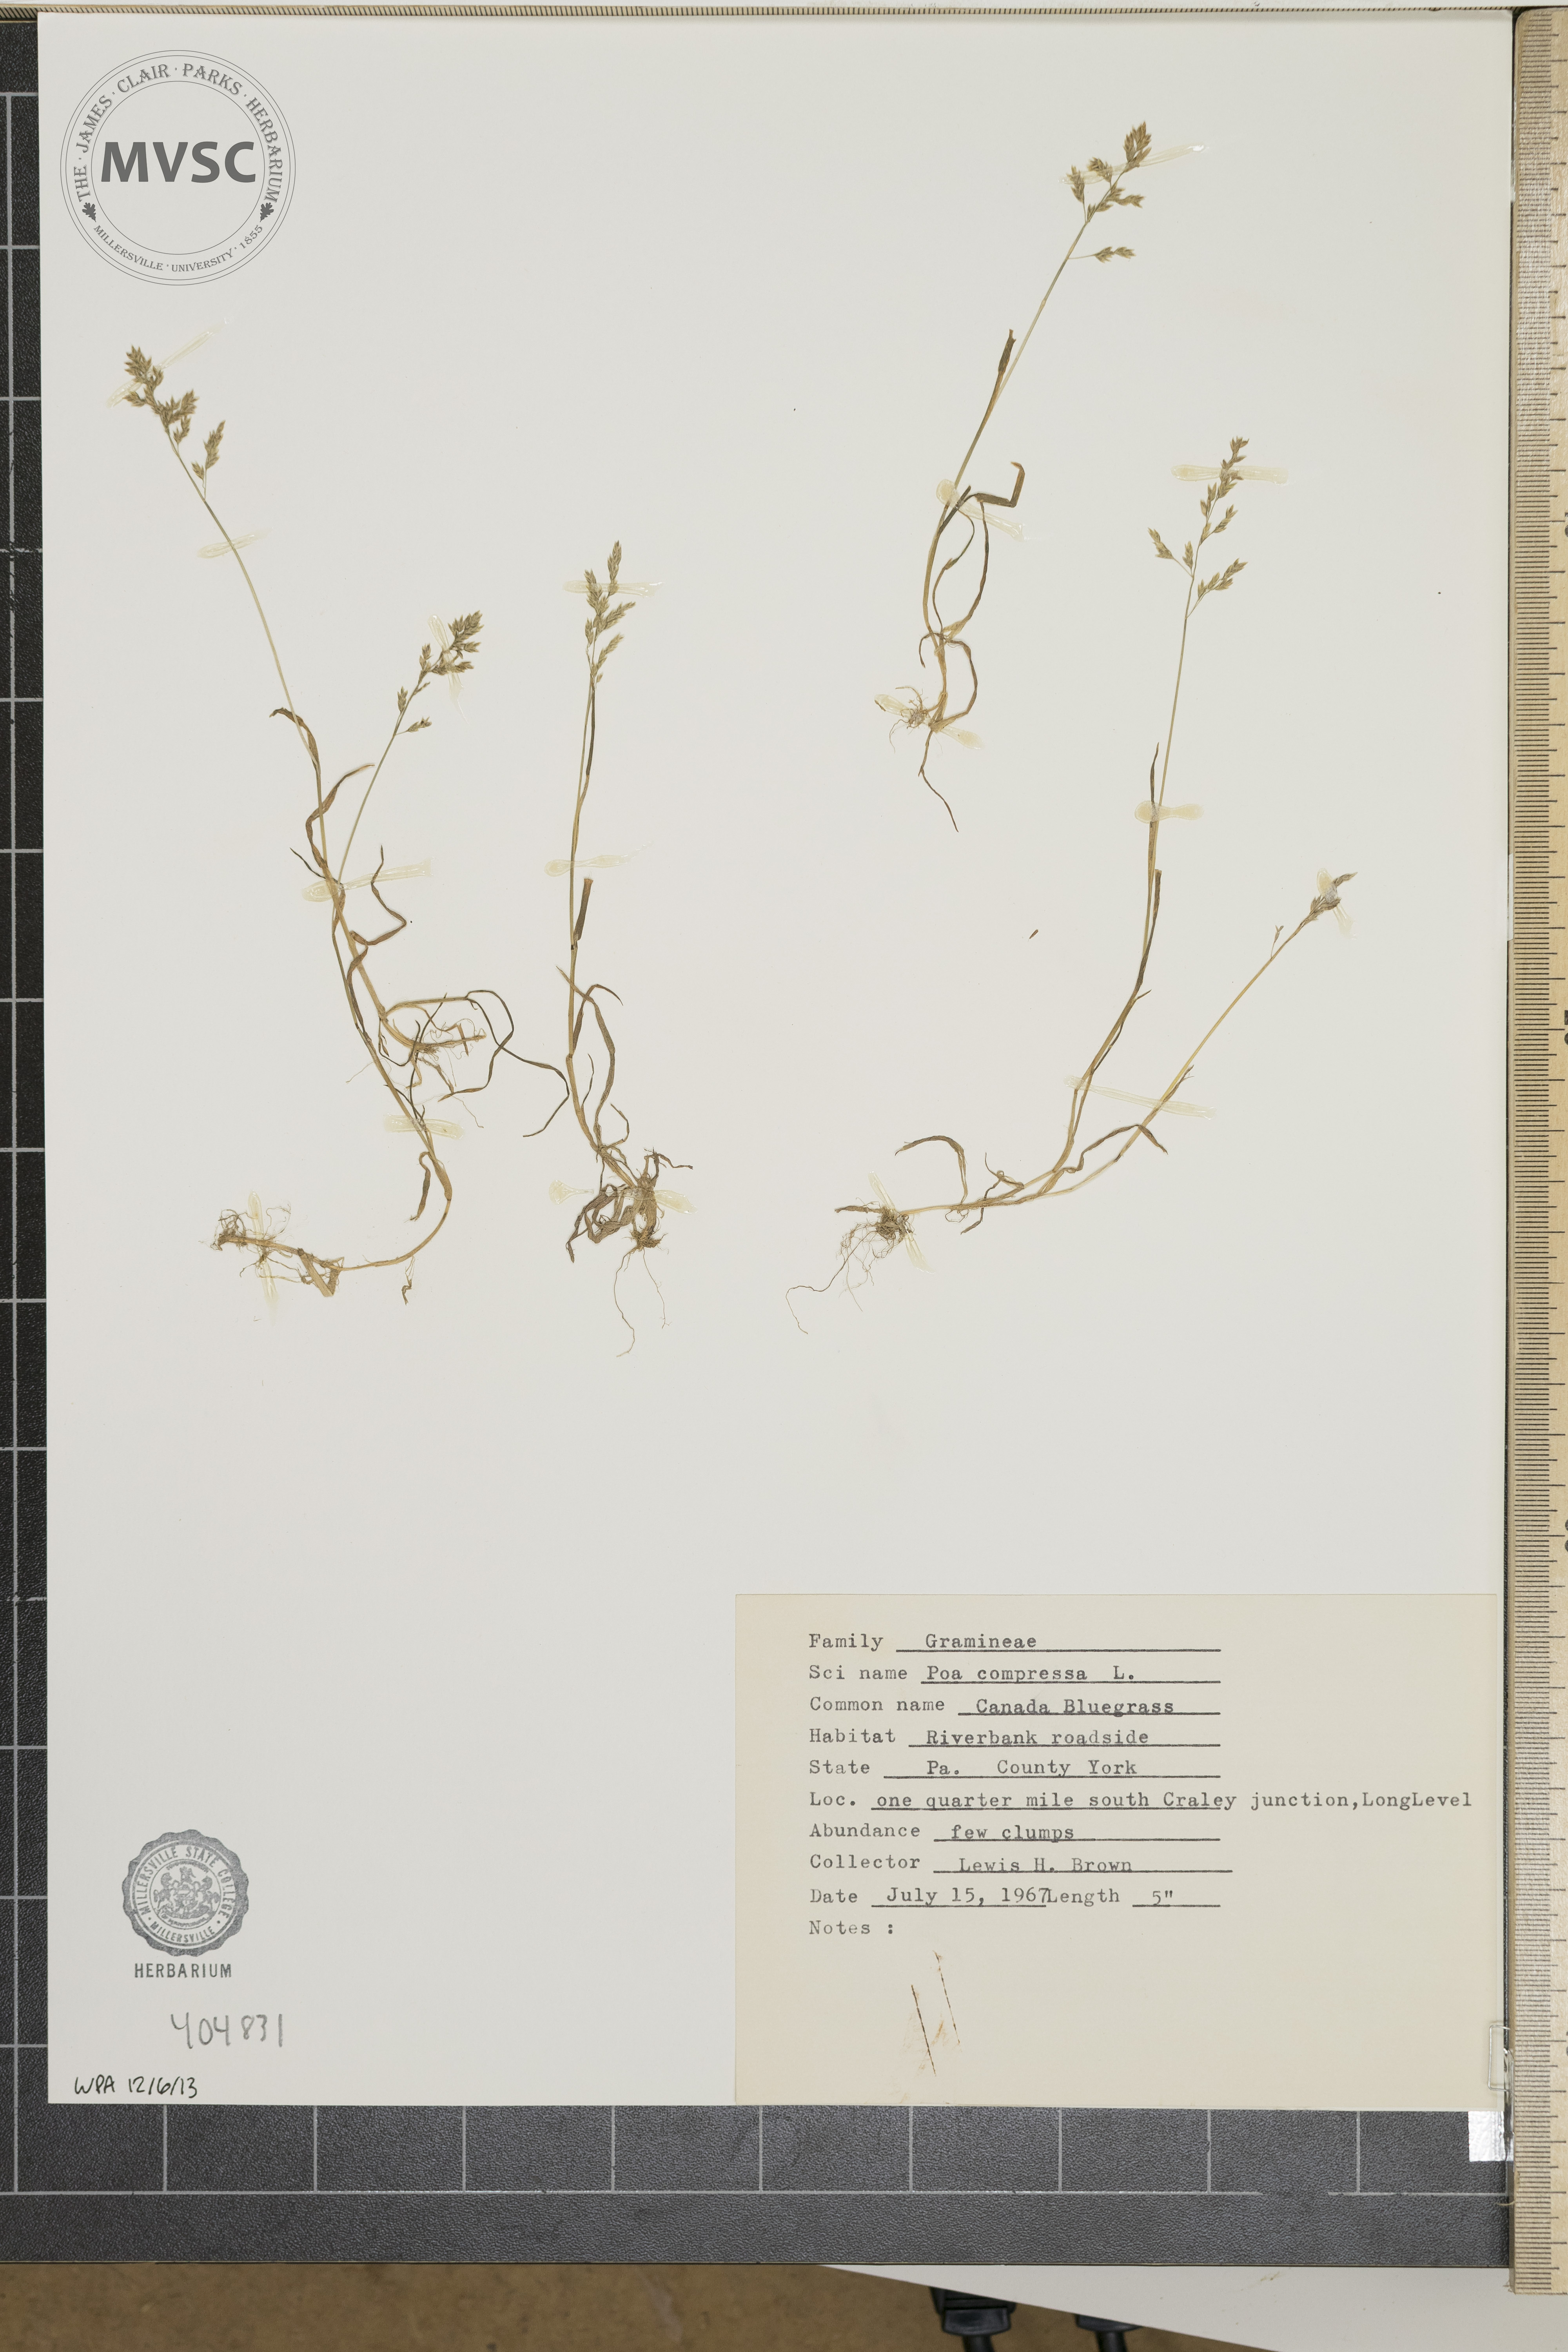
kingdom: Plantae
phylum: Tracheophyta
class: Liliopsida
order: Poales
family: Poaceae
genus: Poa
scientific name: Poa compressa
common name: Canada bluegrass
